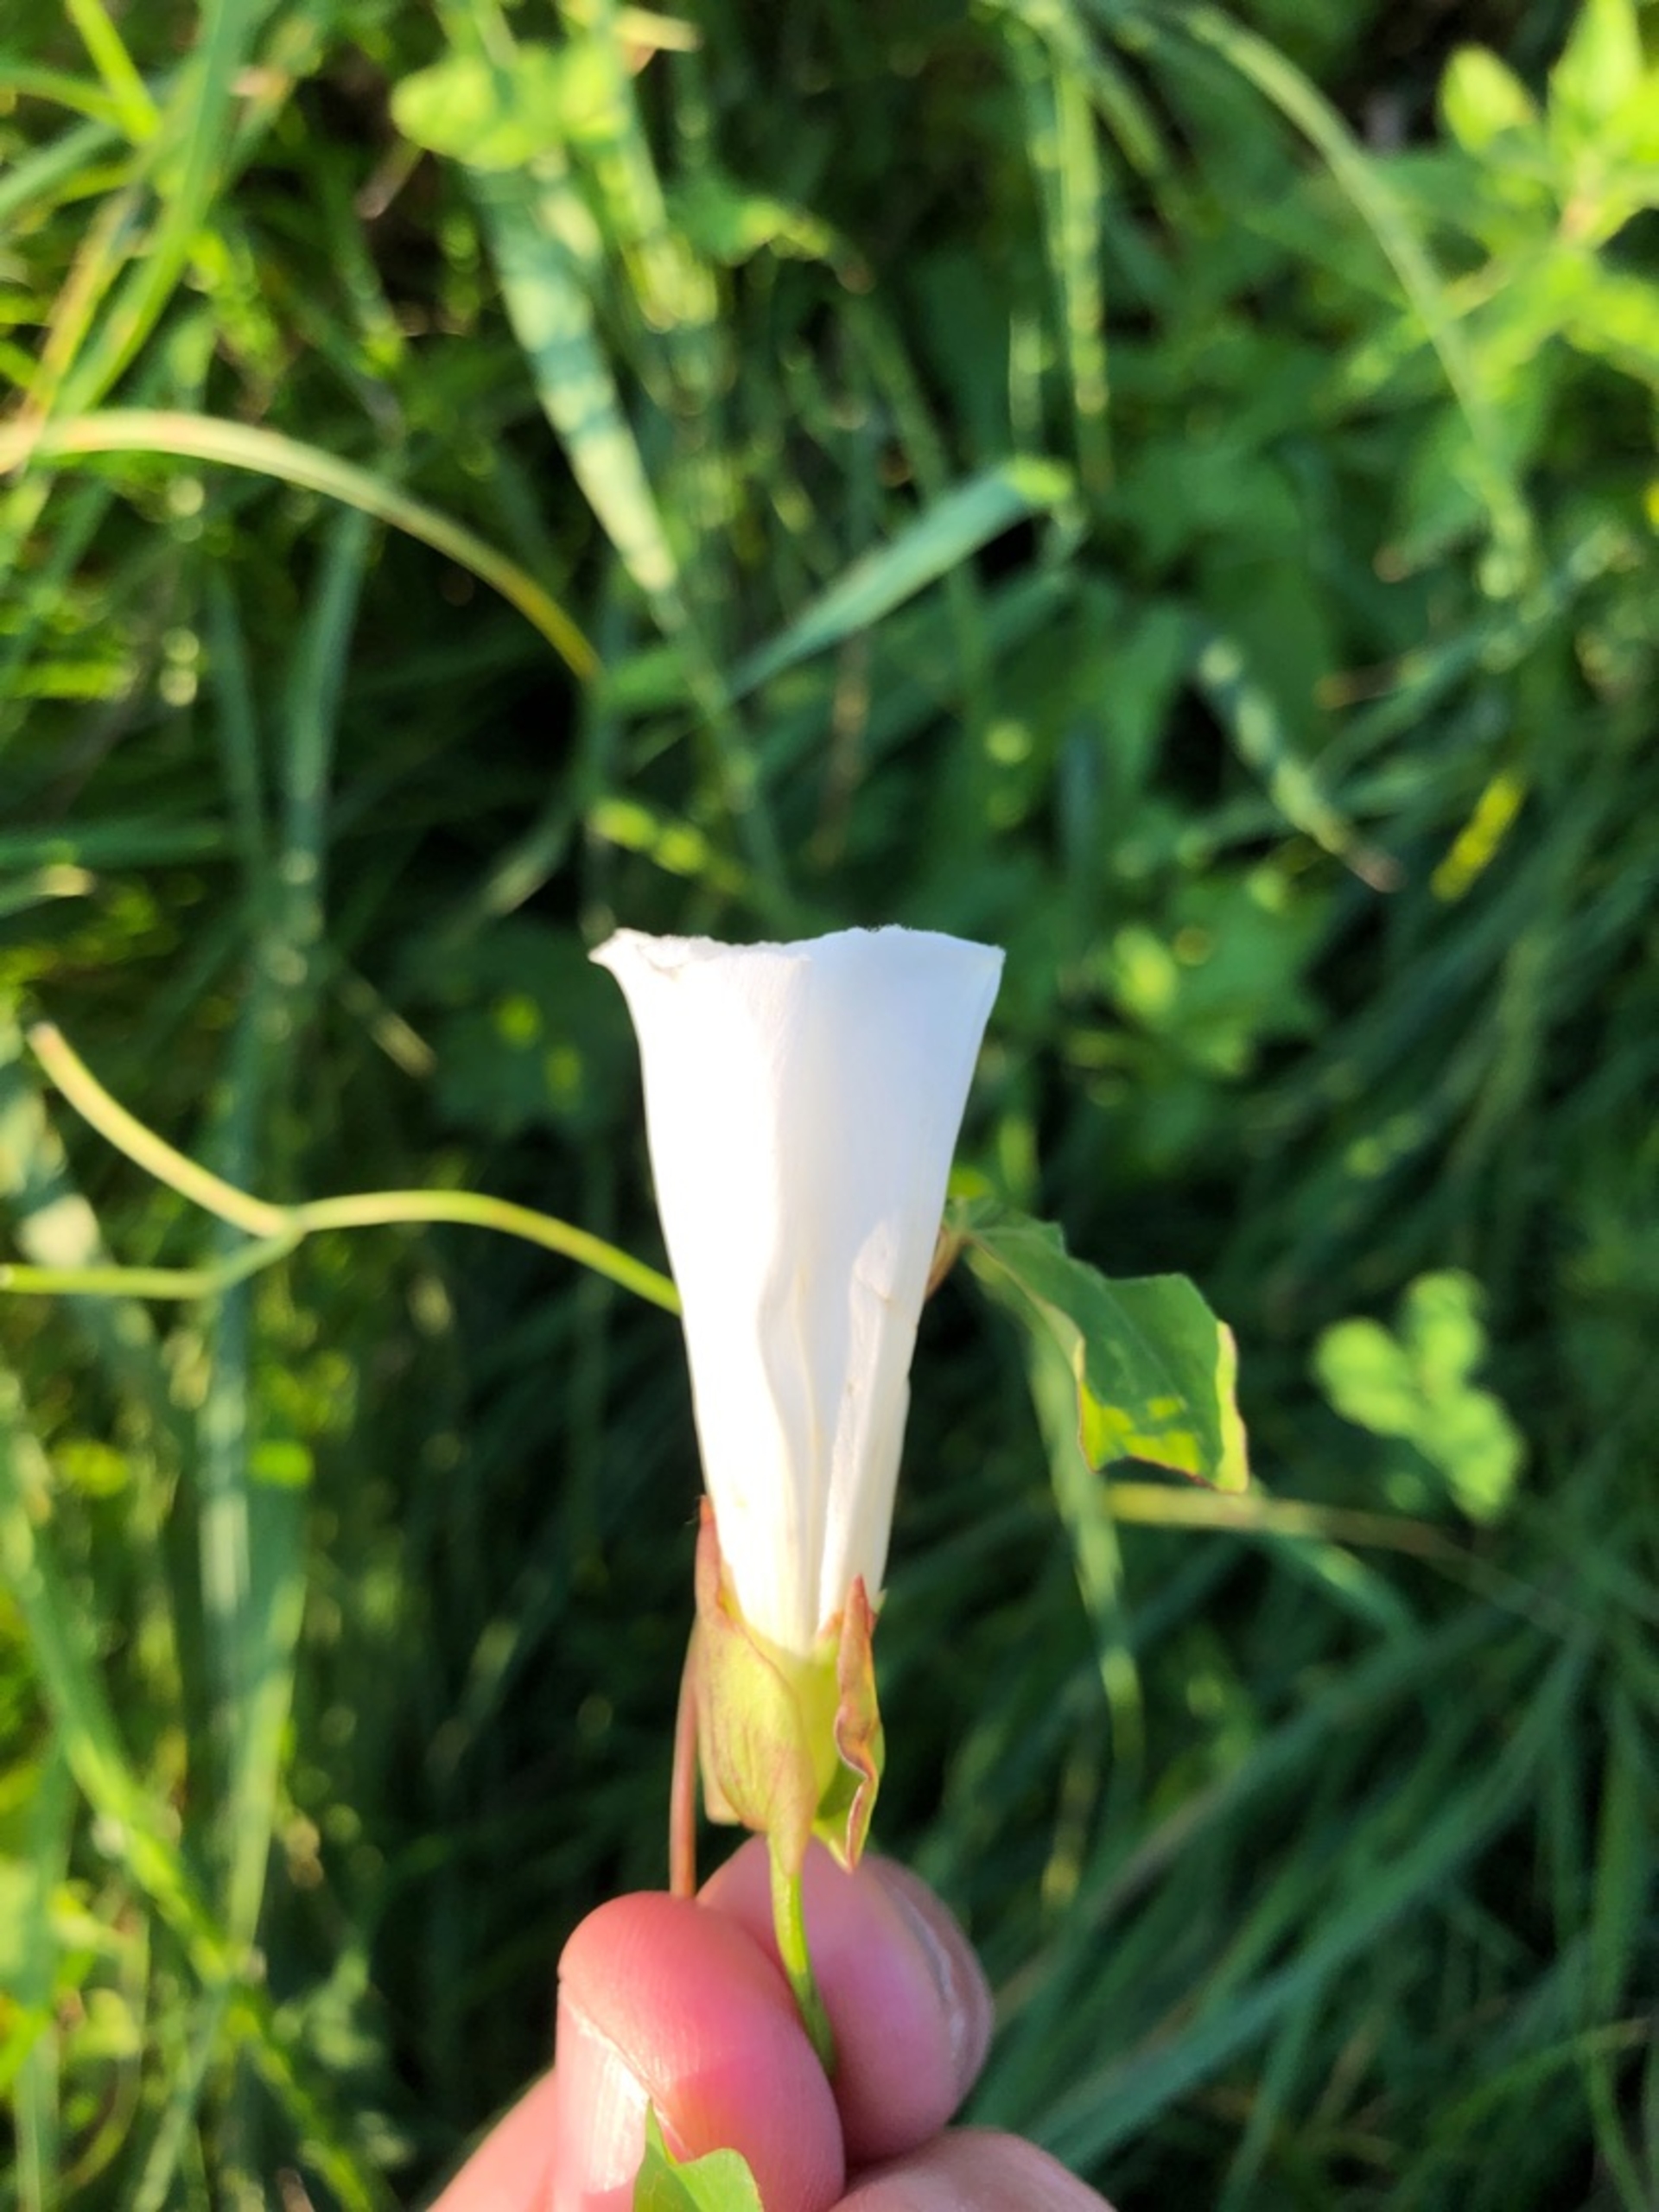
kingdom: Plantae
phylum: Tracheophyta
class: Magnoliopsida
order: Solanales
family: Convolvulaceae
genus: Calystegia
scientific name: Calystegia sepium
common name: Gærde-snerle
